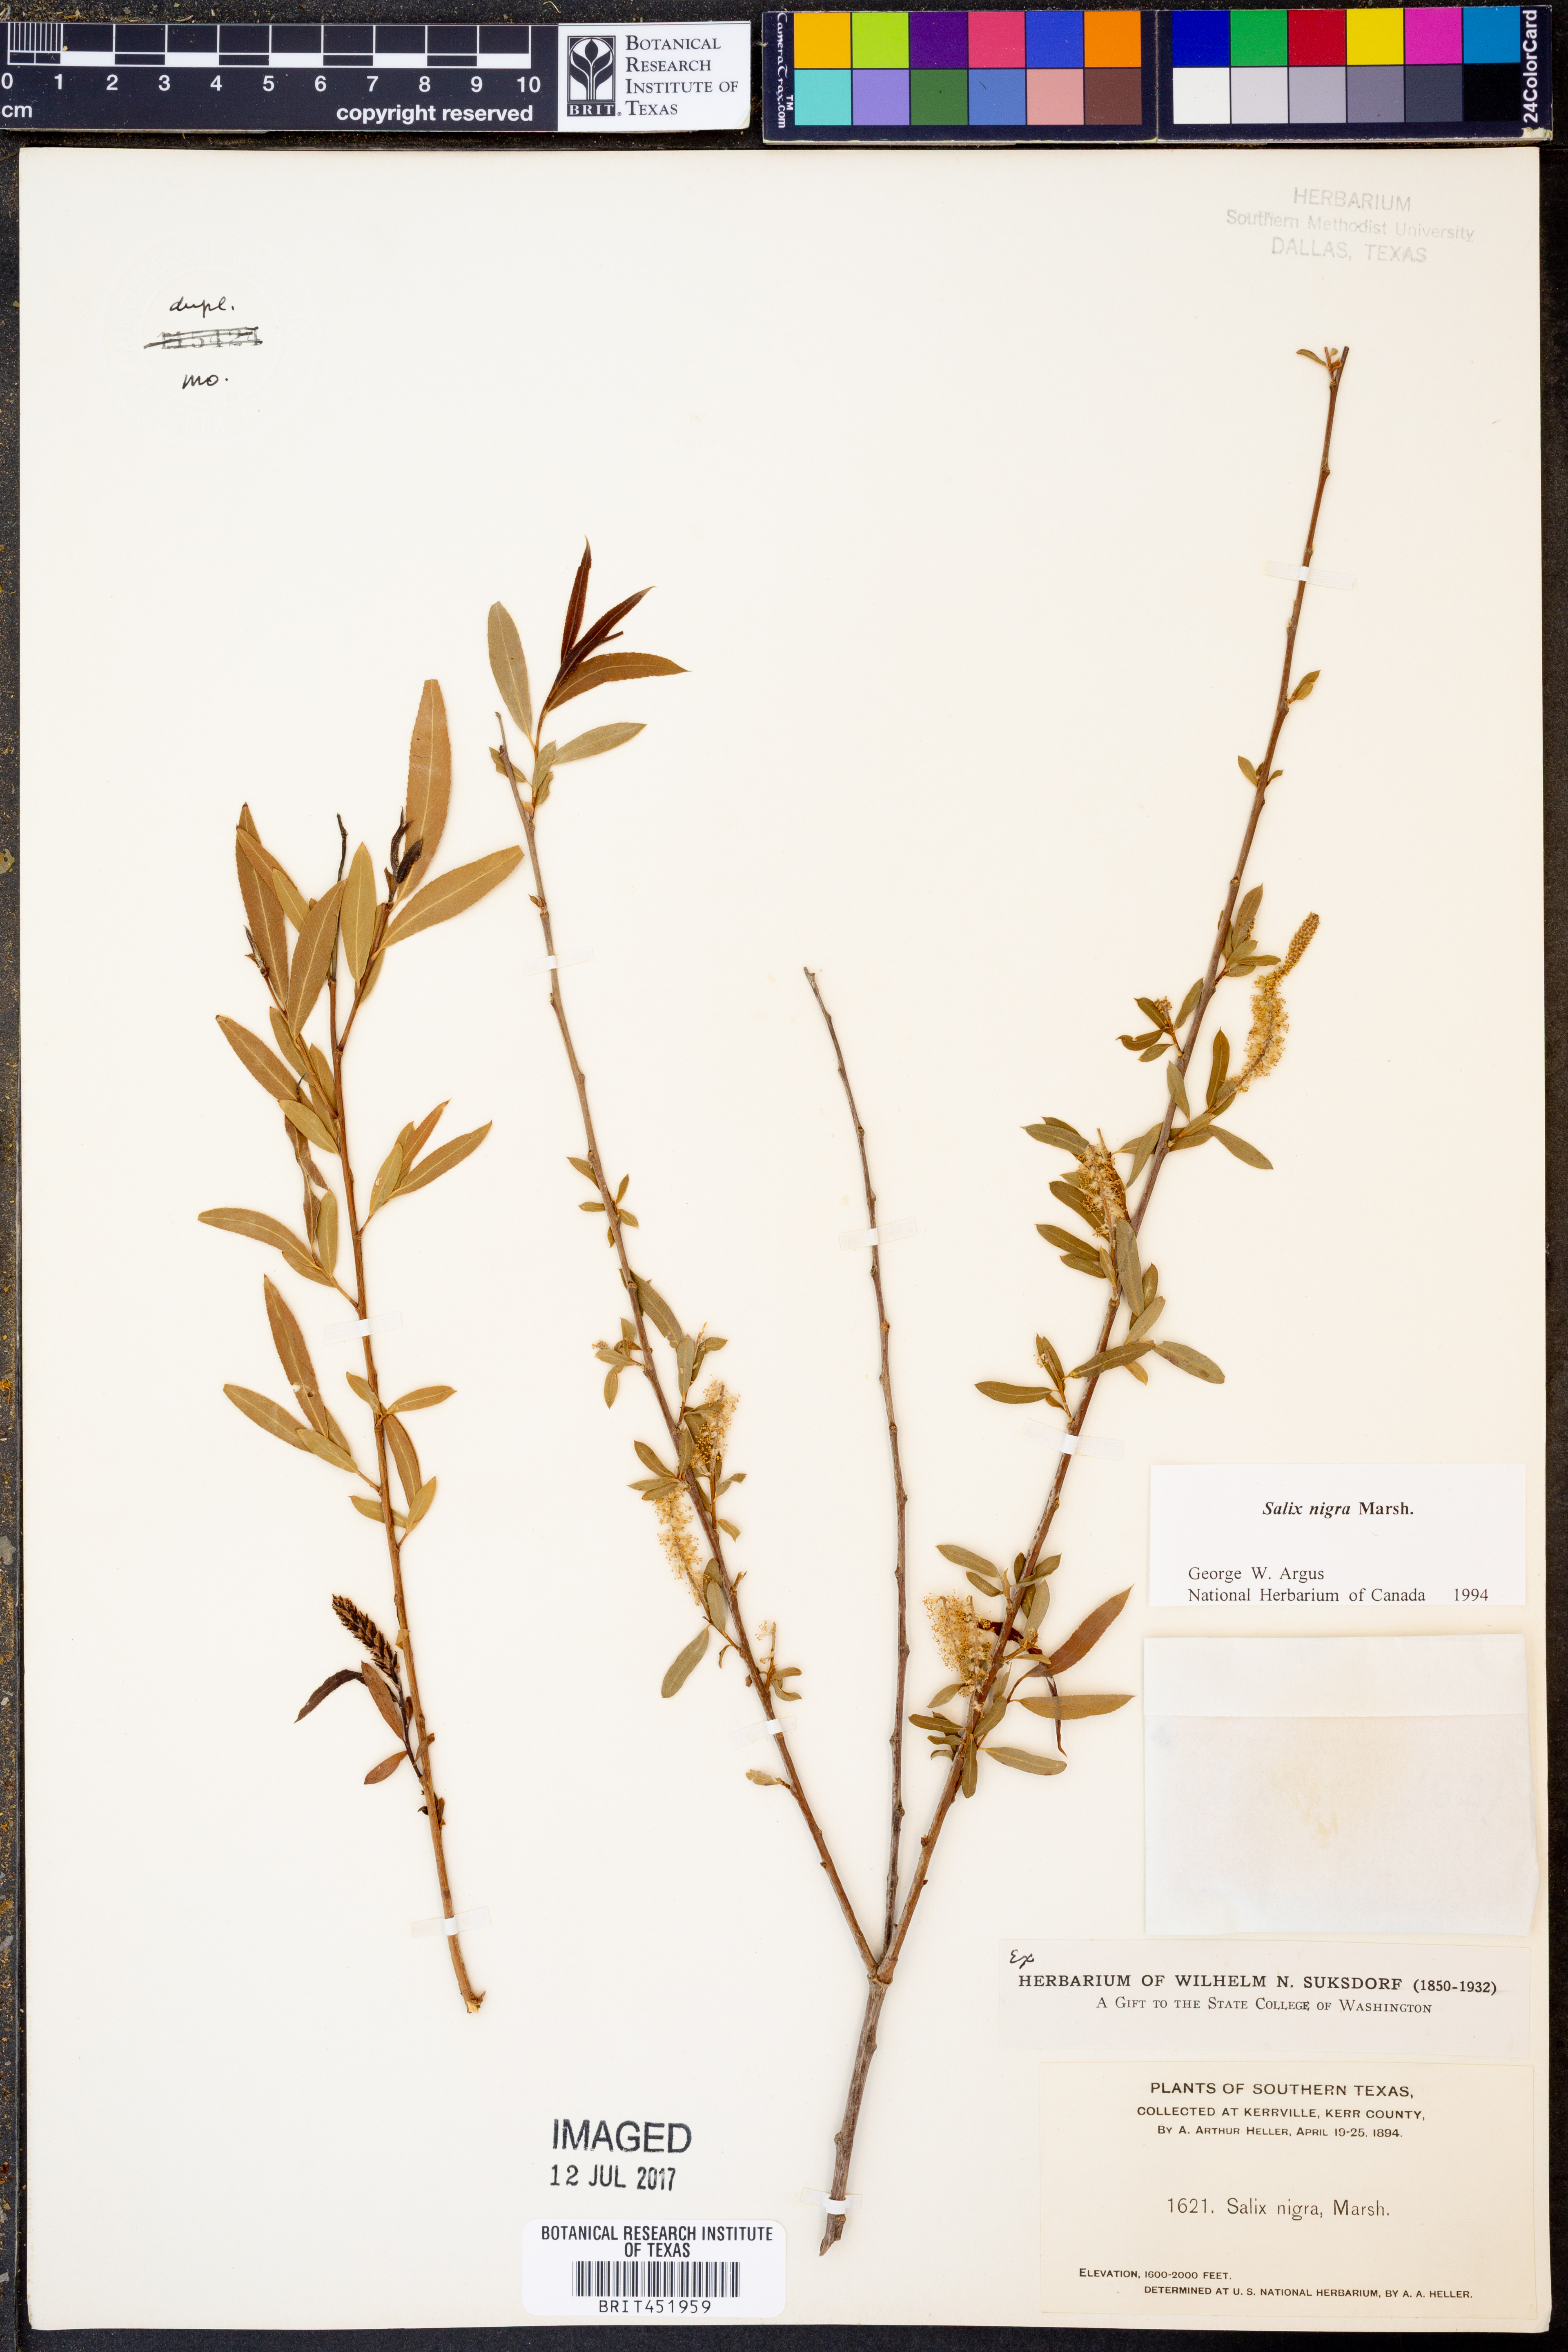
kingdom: Plantae
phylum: Tracheophyta
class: Magnoliopsida
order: Malpighiales
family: Salicaceae
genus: Salix
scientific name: Salix nigra
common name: Black willow
